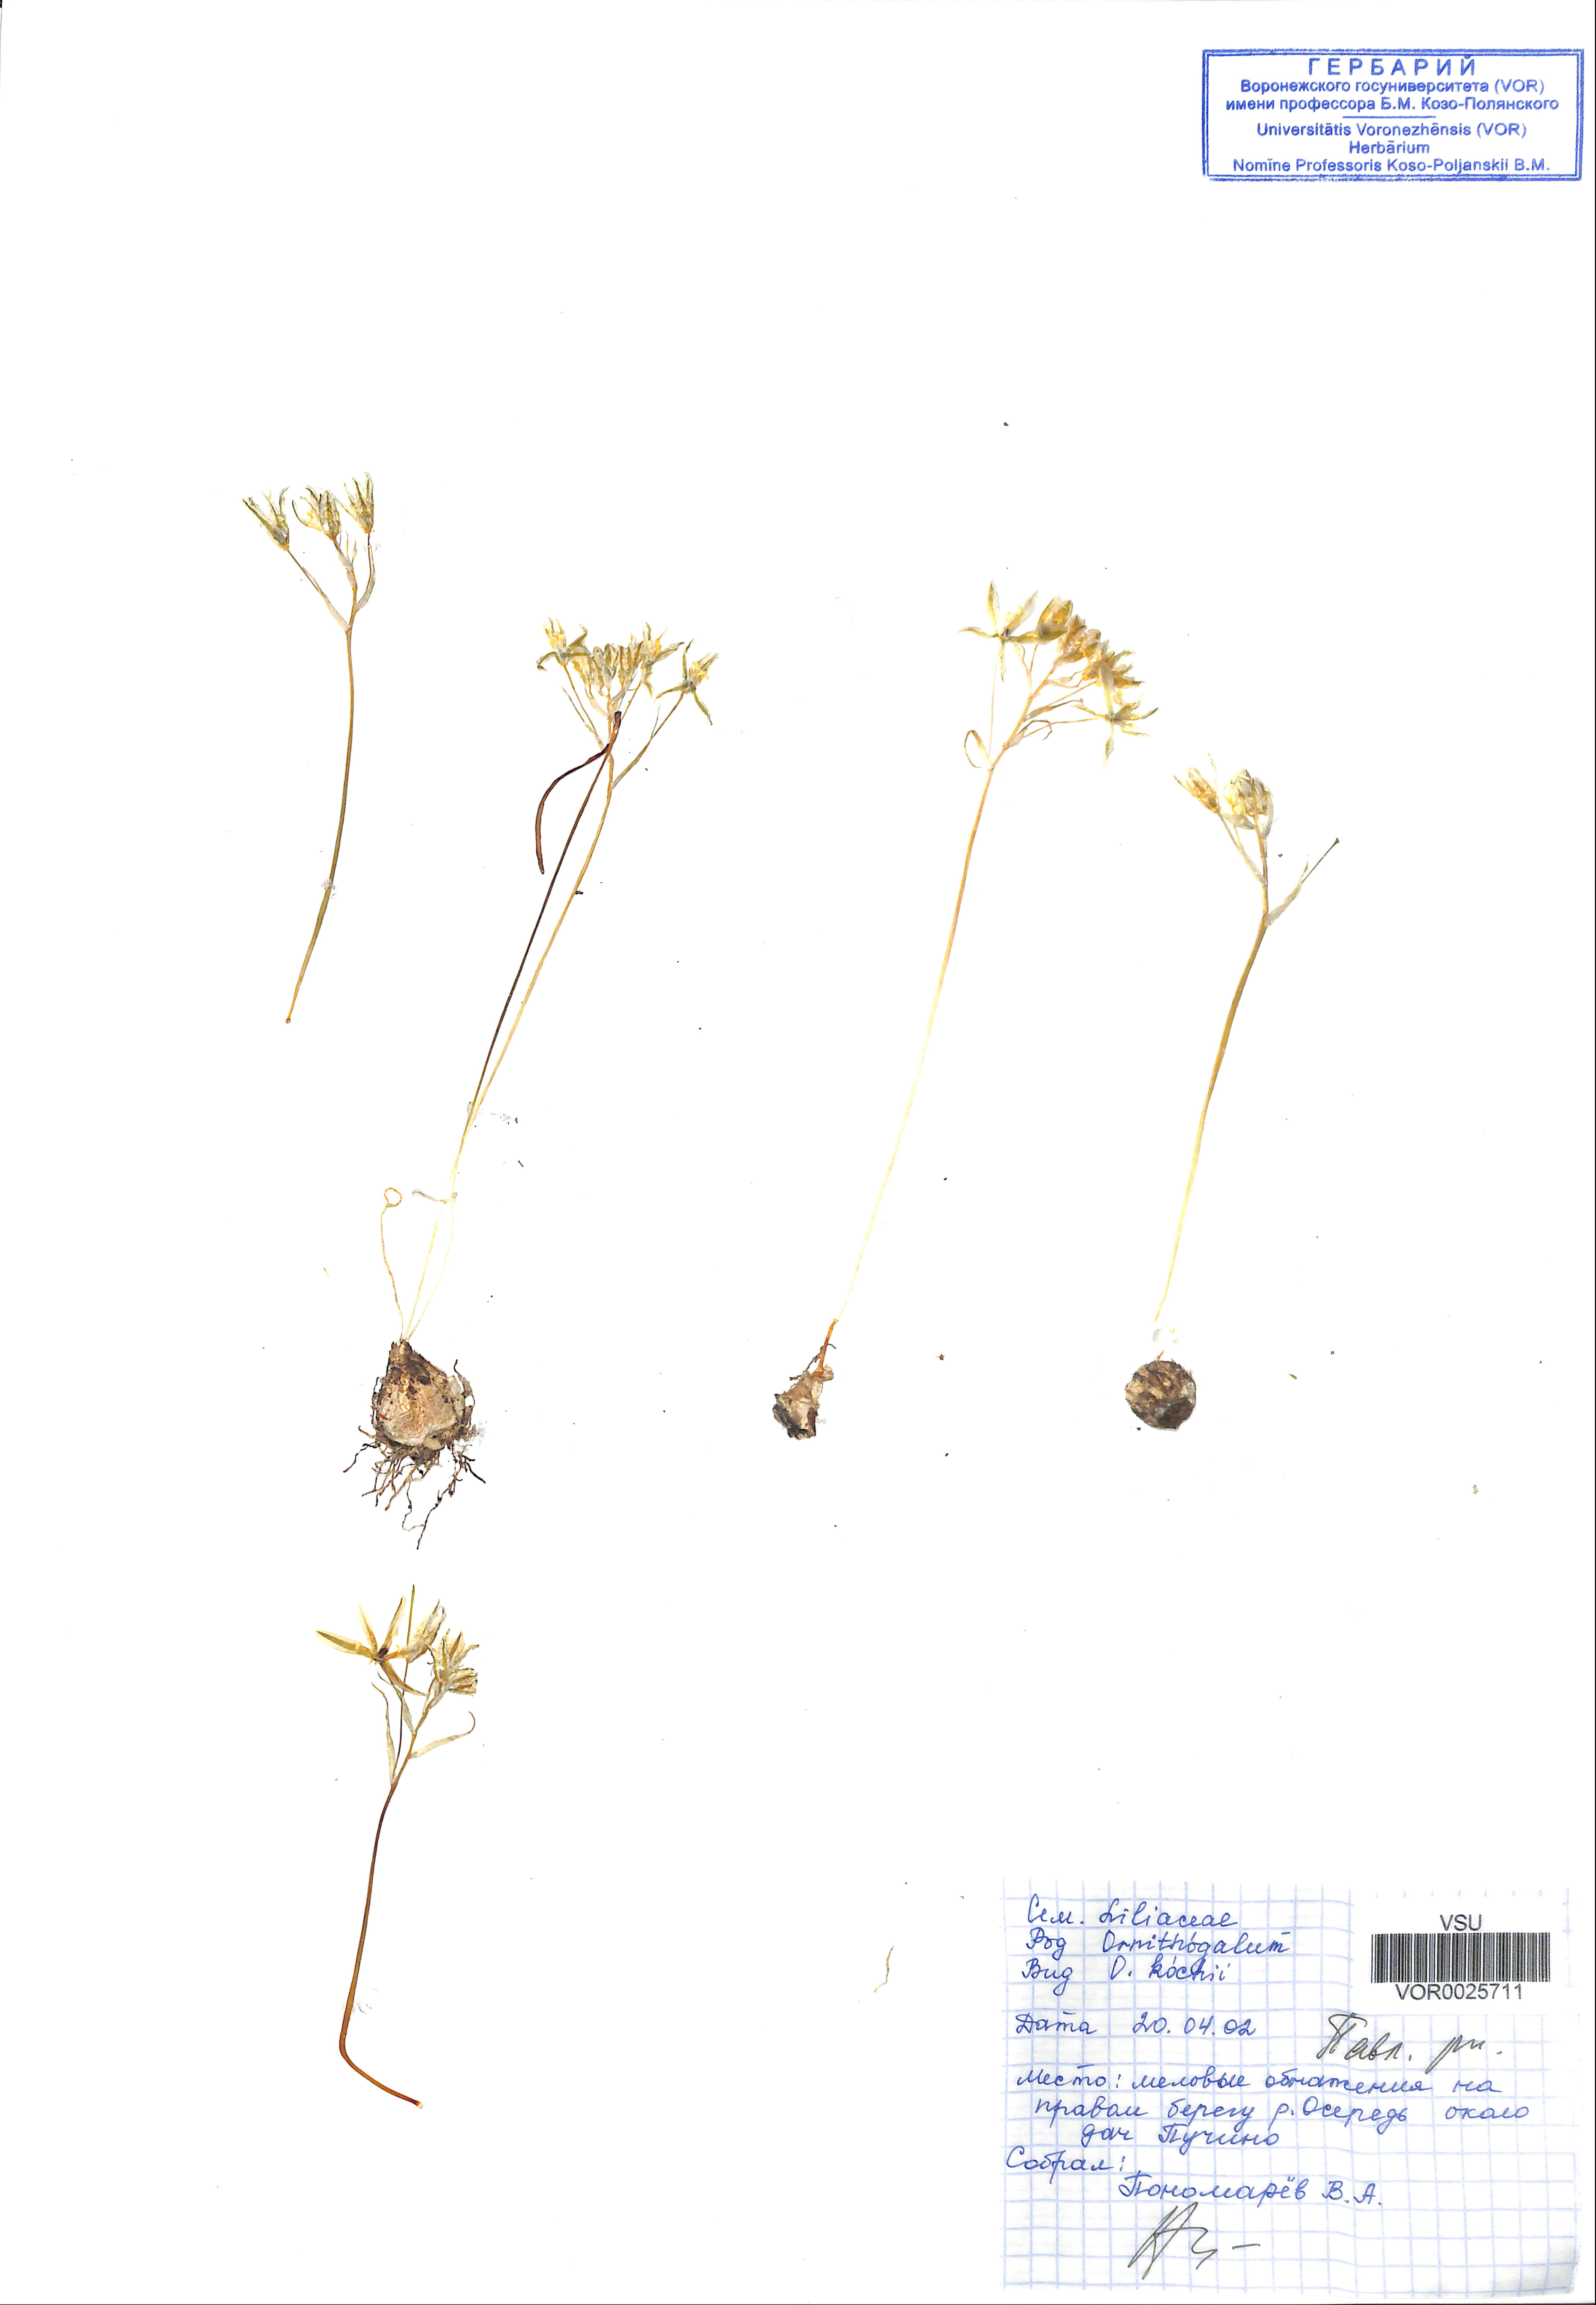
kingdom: Plantae
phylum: Tracheophyta
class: Liliopsida
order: Asparagales
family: Asparagaceae
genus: Ornithogalum
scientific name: Ornithogalum fischerianum
